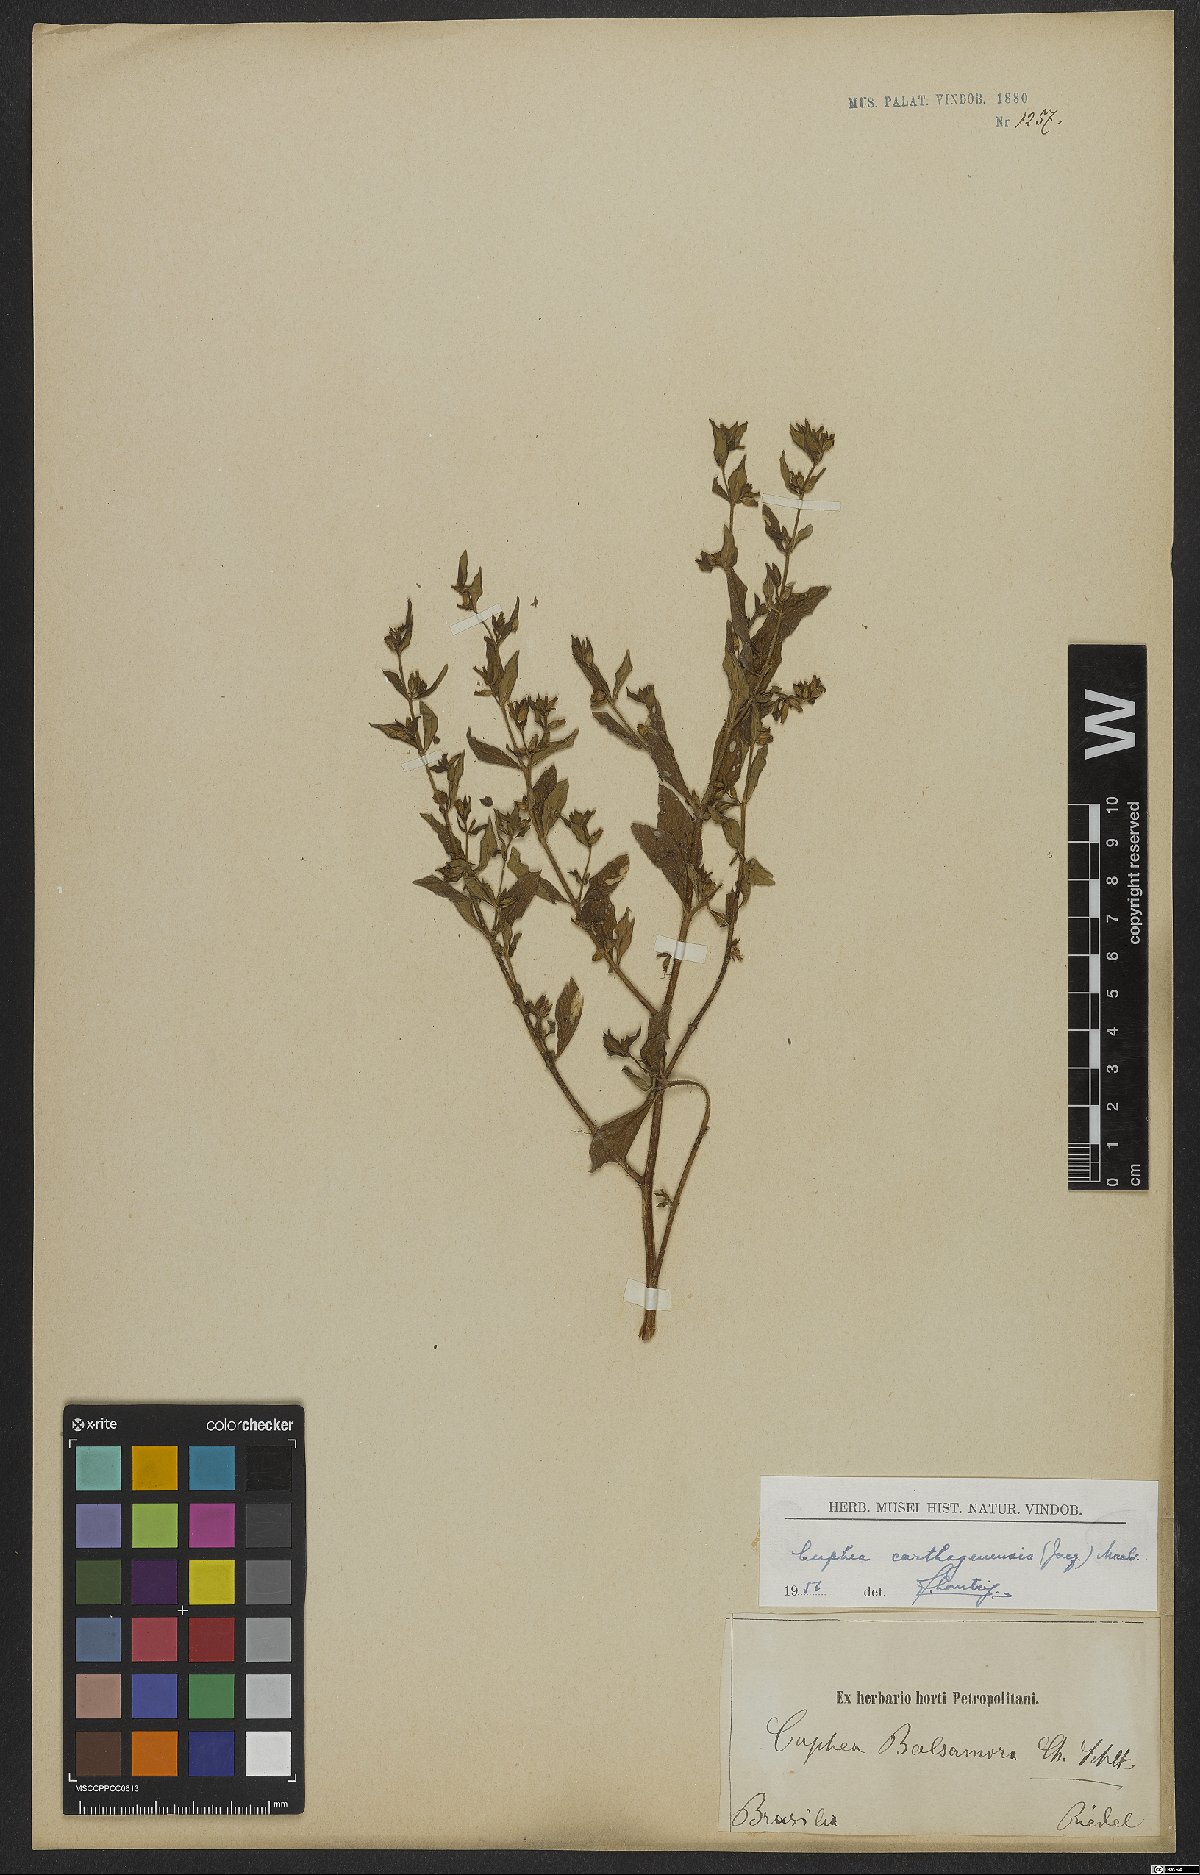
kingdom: Plantae
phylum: Tracheophyta
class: Magnoliopsida
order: Myrtales
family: Lythraceae
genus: Cuphea
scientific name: Cuphea carthagenensis
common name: Colombian waxweed
